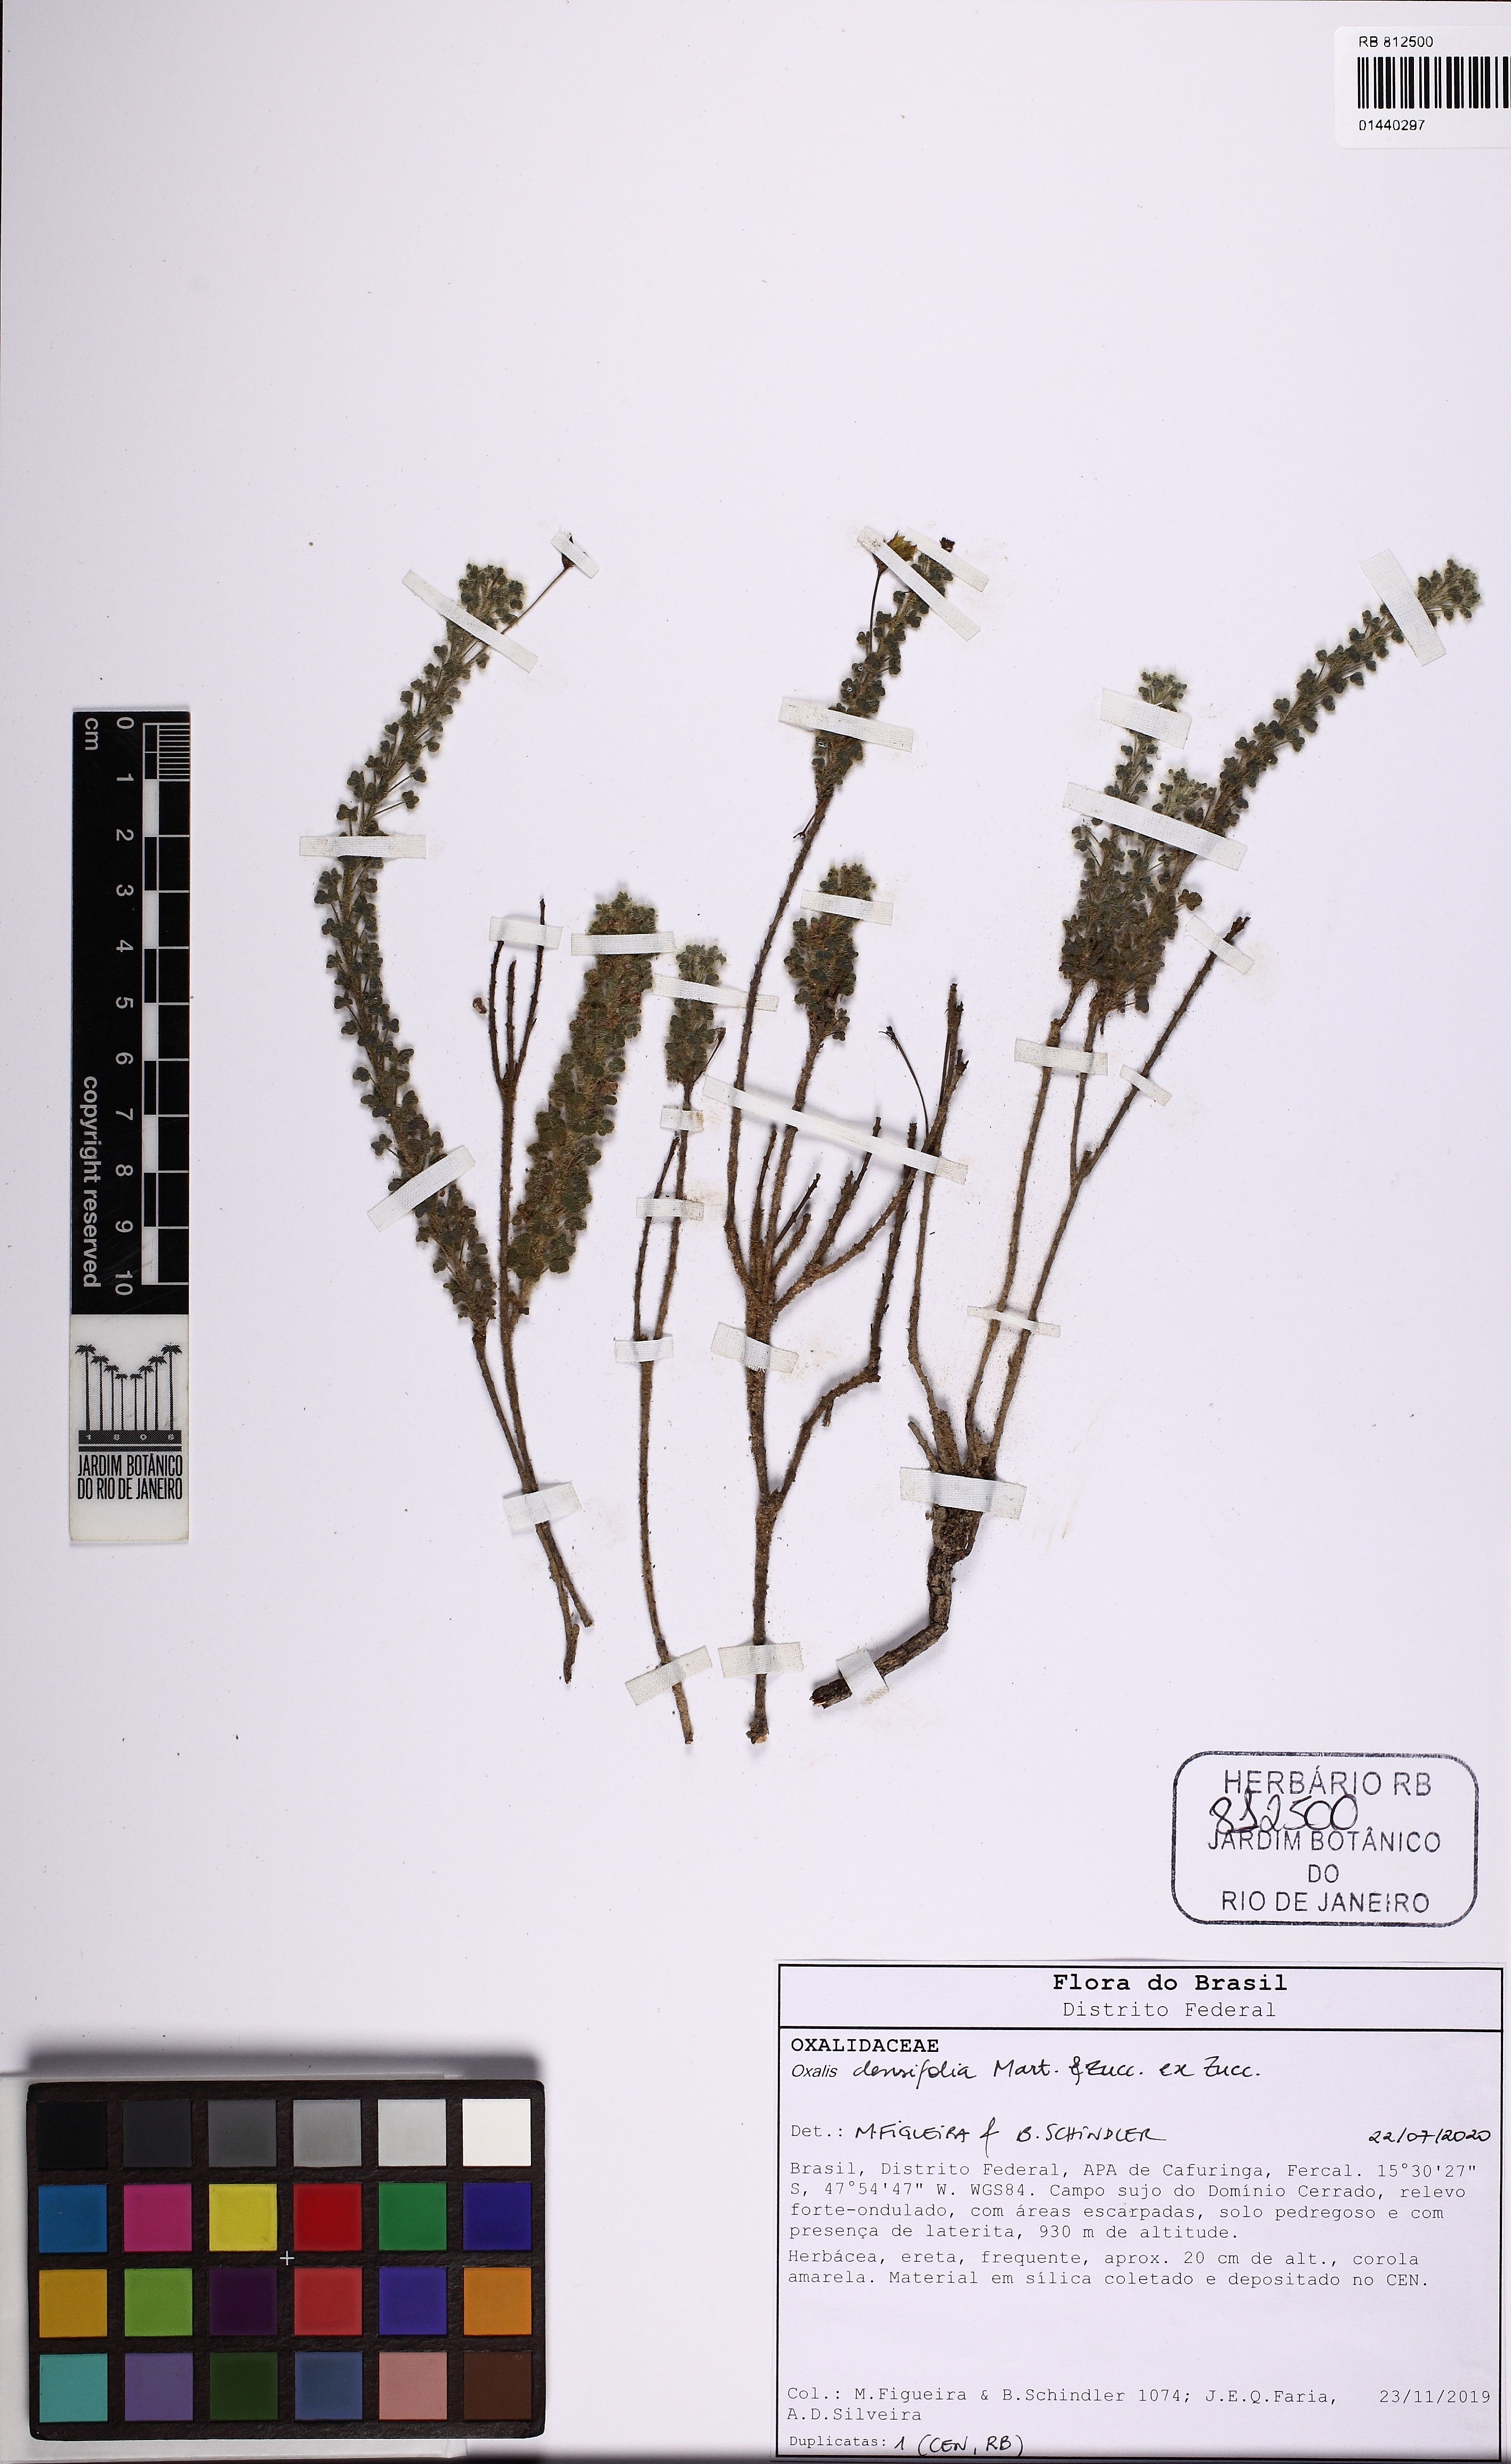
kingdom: Plantae
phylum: Tracheophyta
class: Magnoliopsida
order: Oxalidales
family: Oxalidaceae
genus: Oxalis
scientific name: Oxalis densifolia
